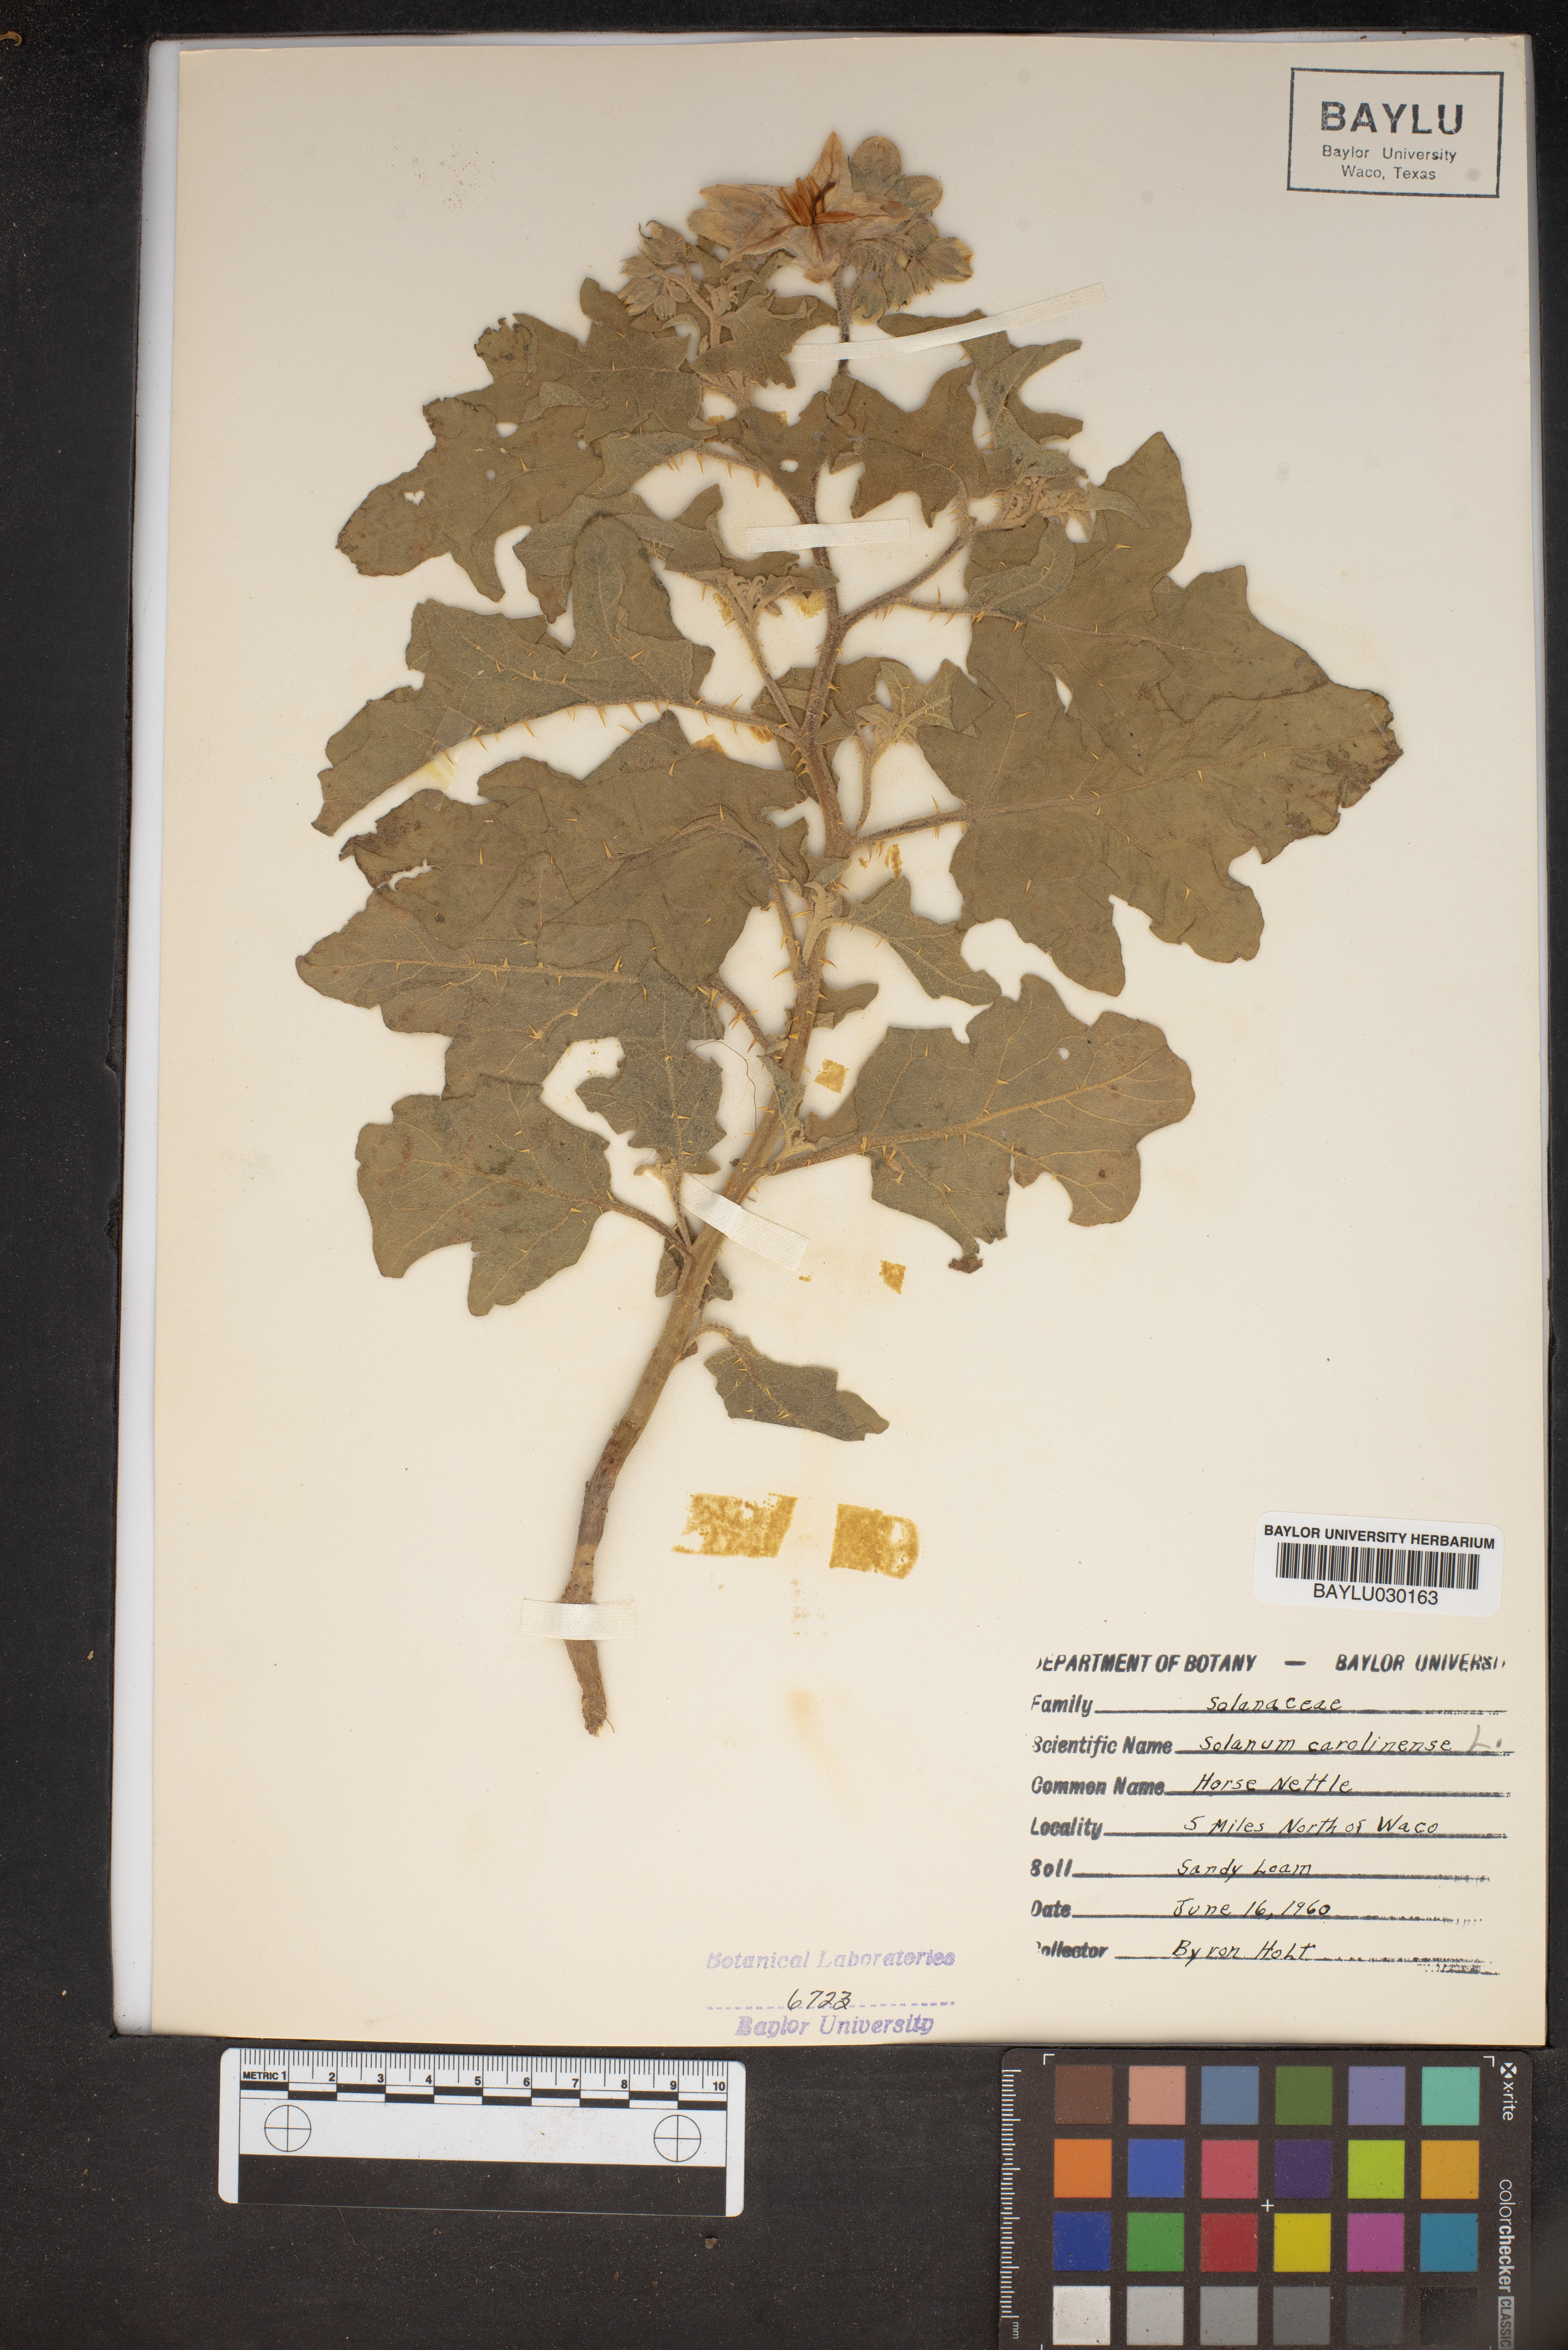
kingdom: Plantae
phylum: Tracheophyta
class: Magnoliopsida
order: Solanales
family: Solanaceae
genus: Solanum
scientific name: Solanum carolinense
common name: Horse-nettle
